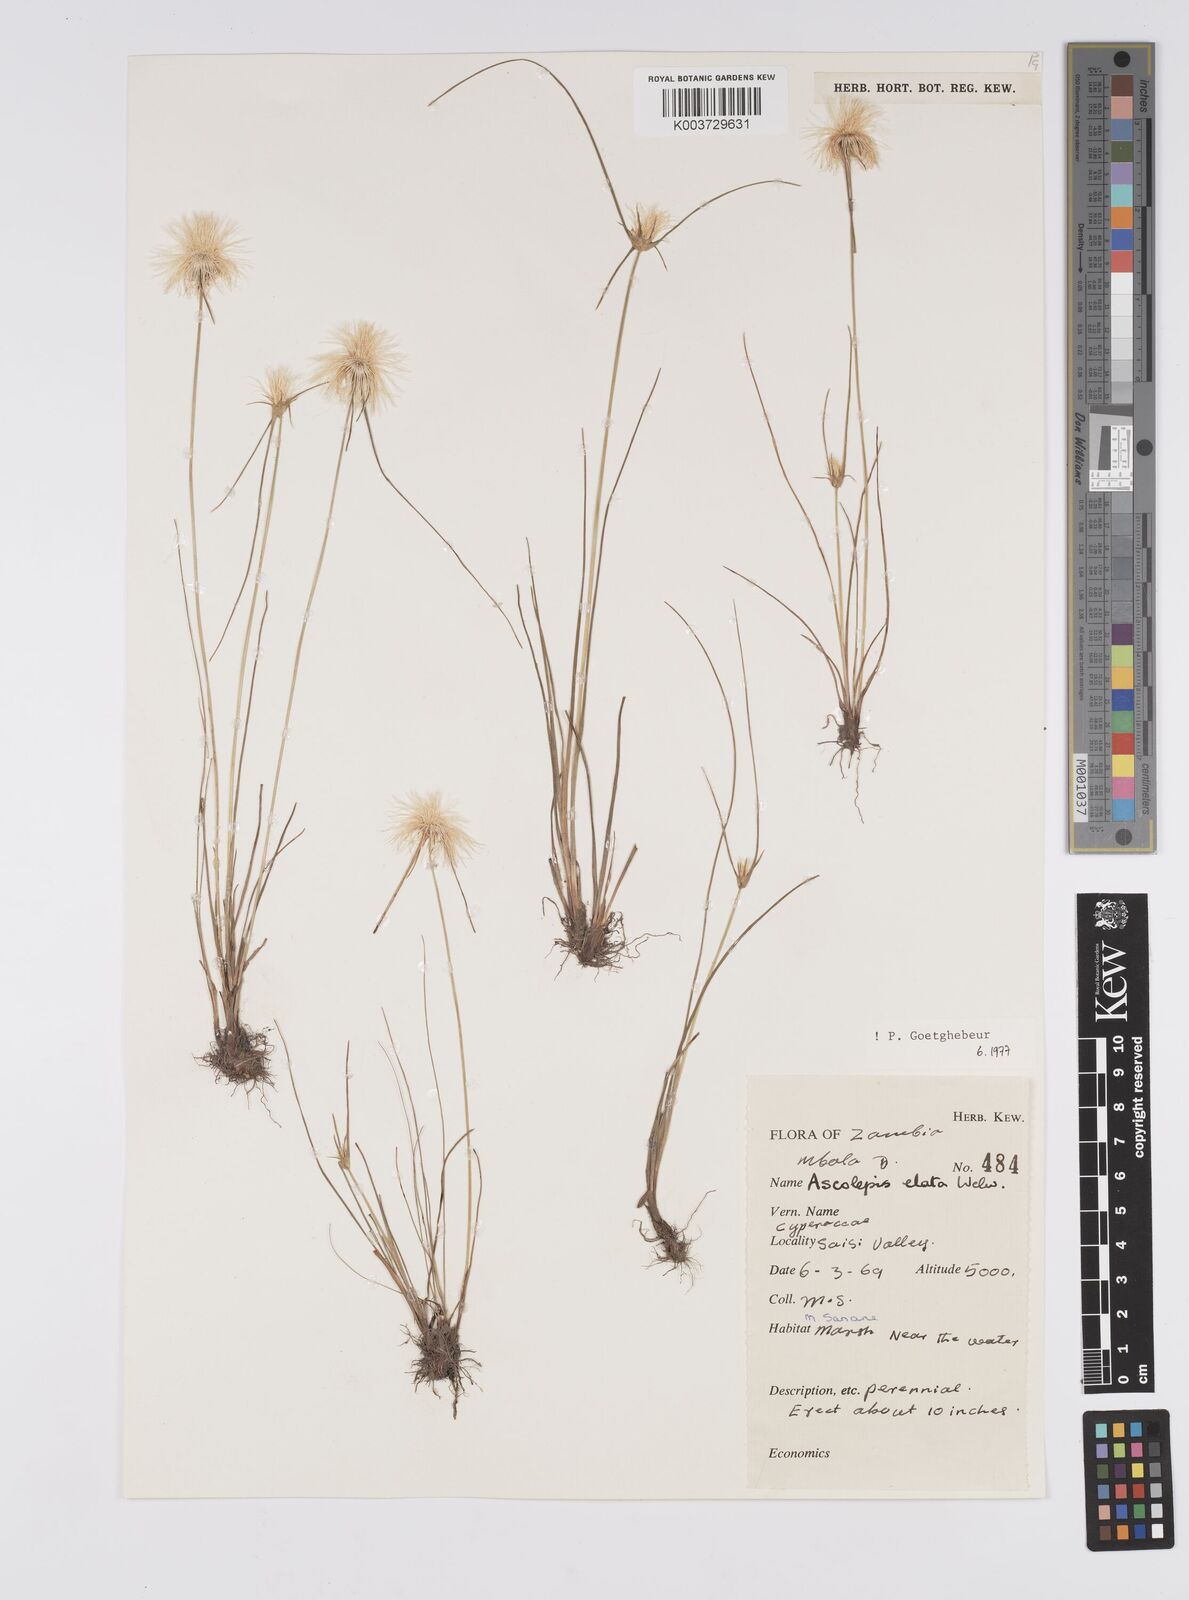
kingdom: Plantae
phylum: Tracheophyta
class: Liliopsida
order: Poales
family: Cyperaceae
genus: Cyperus
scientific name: Cyperus
